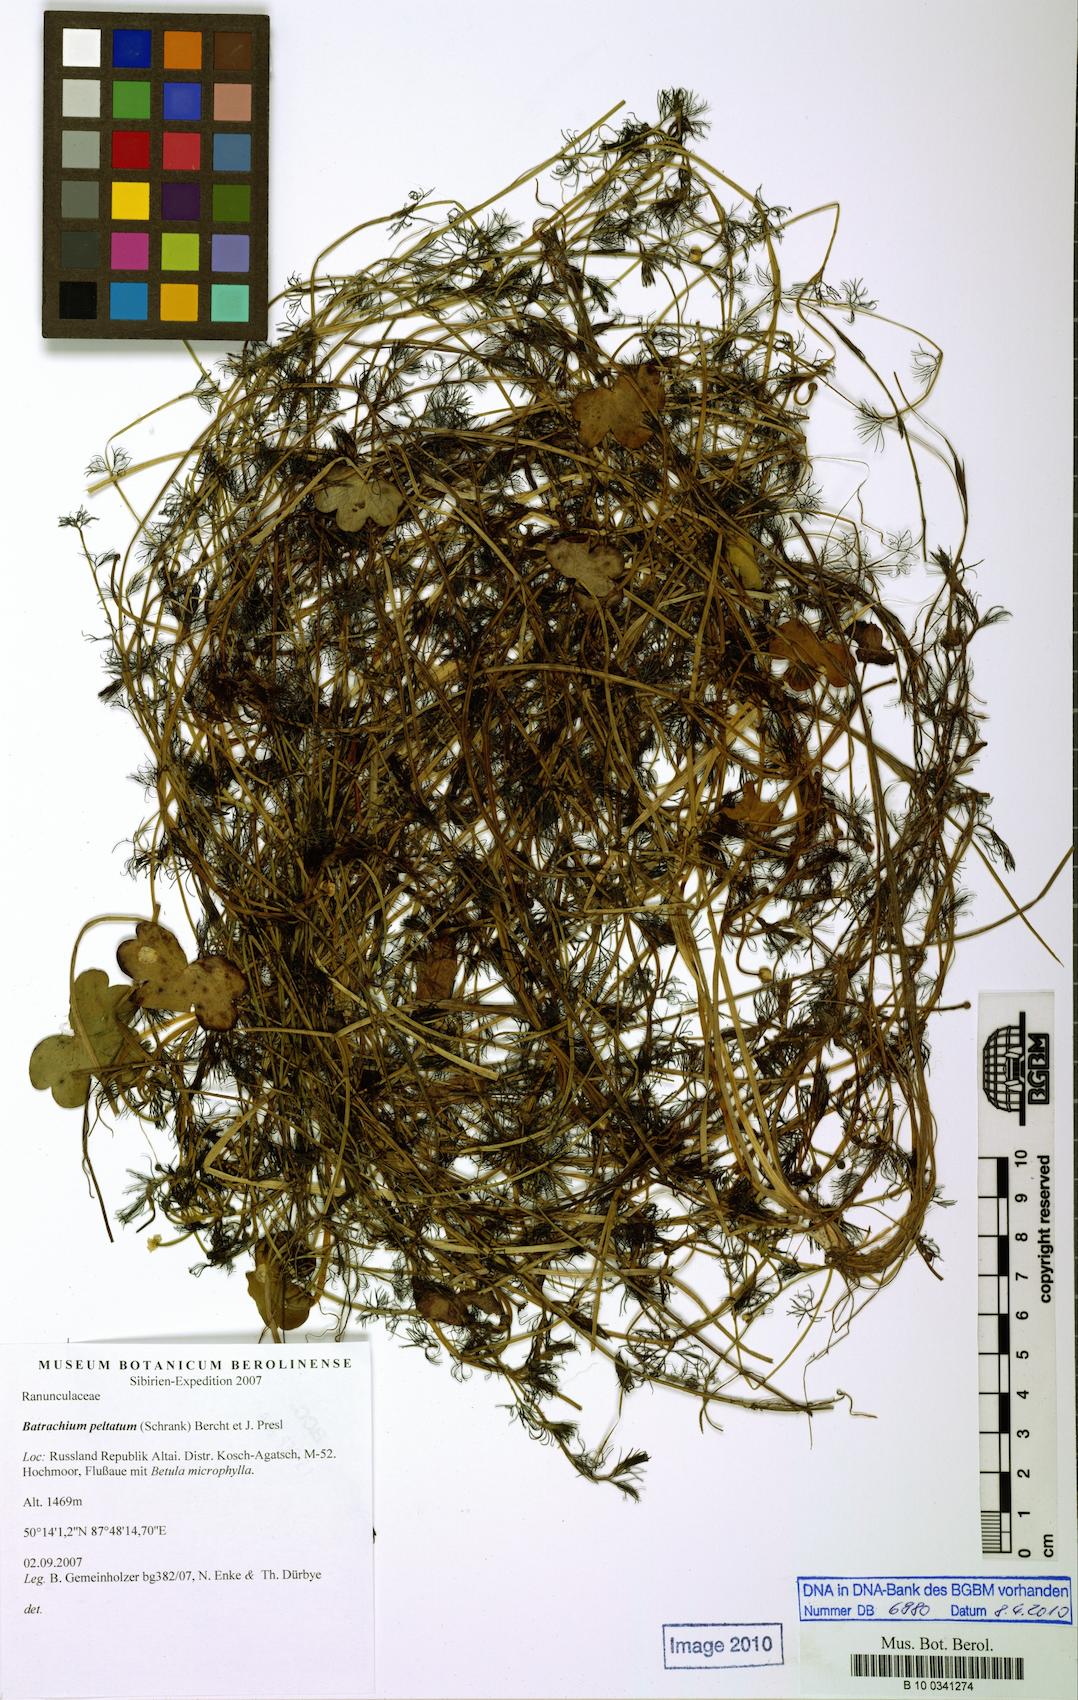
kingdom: Plantae
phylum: Tracheophyta
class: Magnoliopsida
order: Ranunculales
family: Ranunculaceae
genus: Ranunculus
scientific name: Ranunculus peltatus
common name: Pond water-crowfoot
